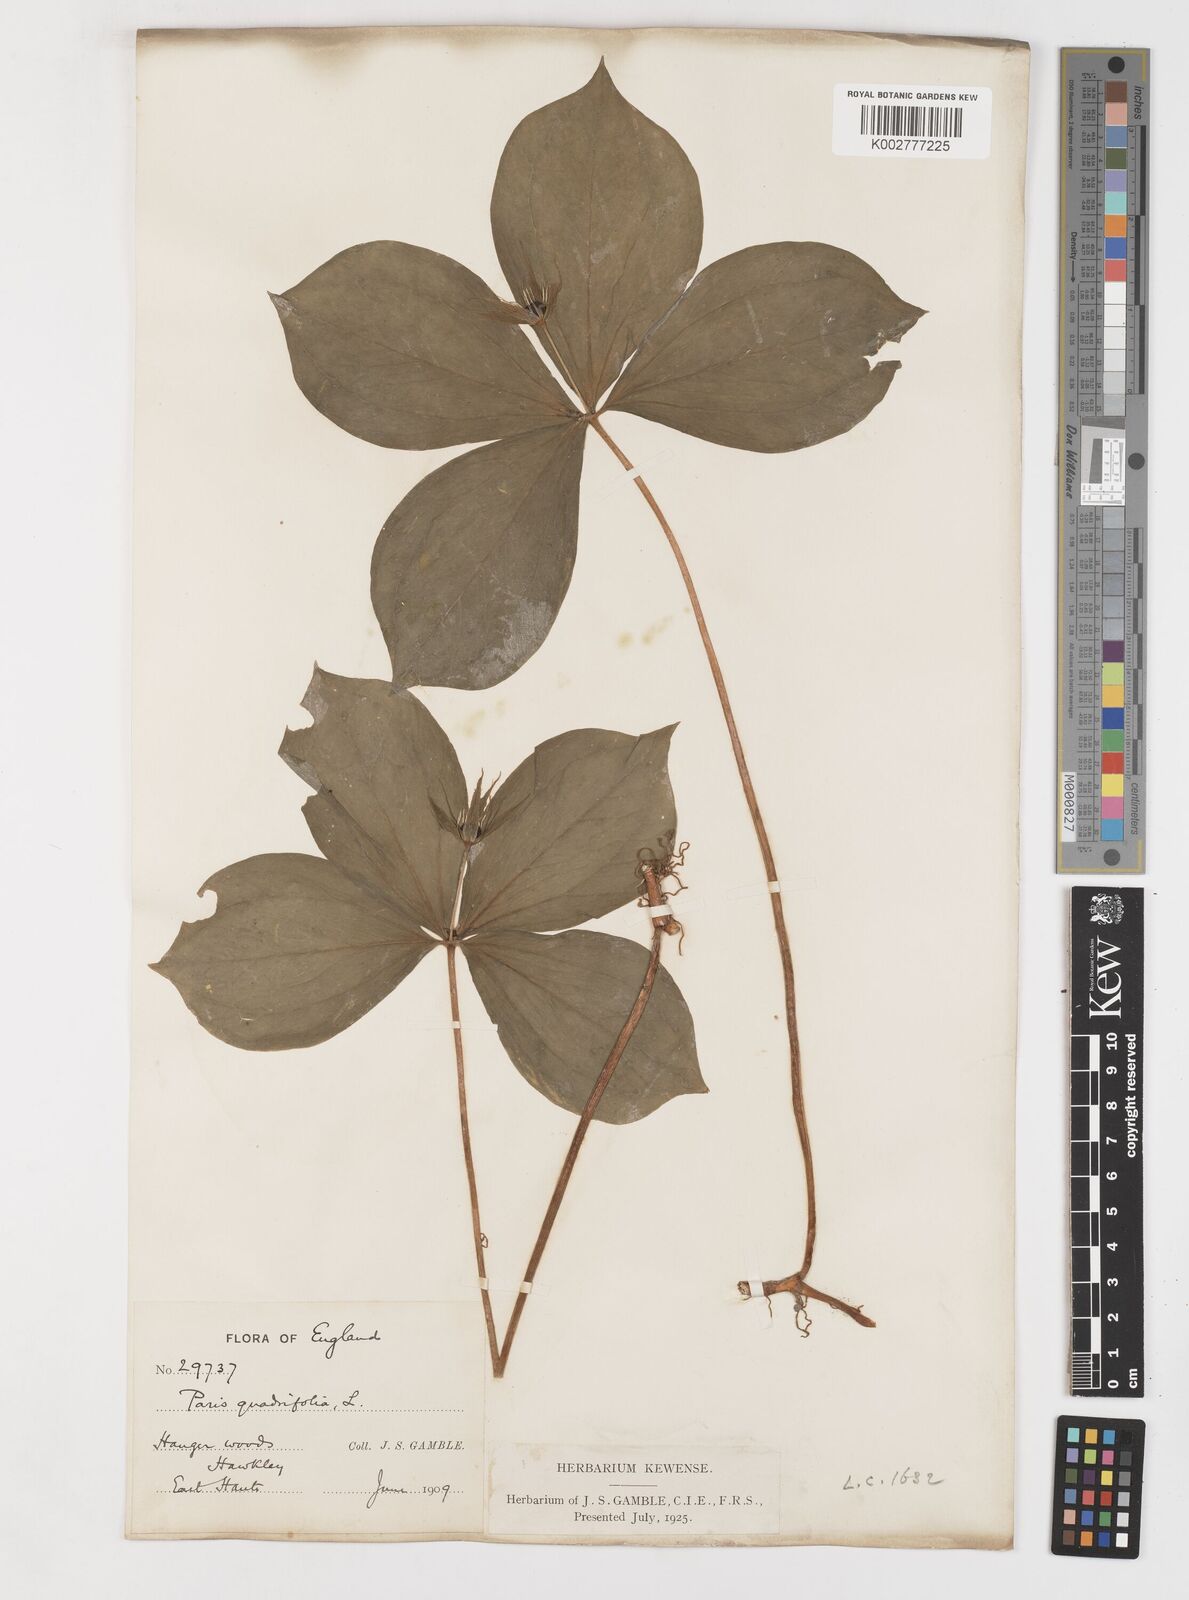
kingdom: Plantae
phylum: Tracheophyta
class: Liliopsida
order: Liliales
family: Melanthiaceae
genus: Paris
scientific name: Paris quadrifolia
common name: Herb-paris
